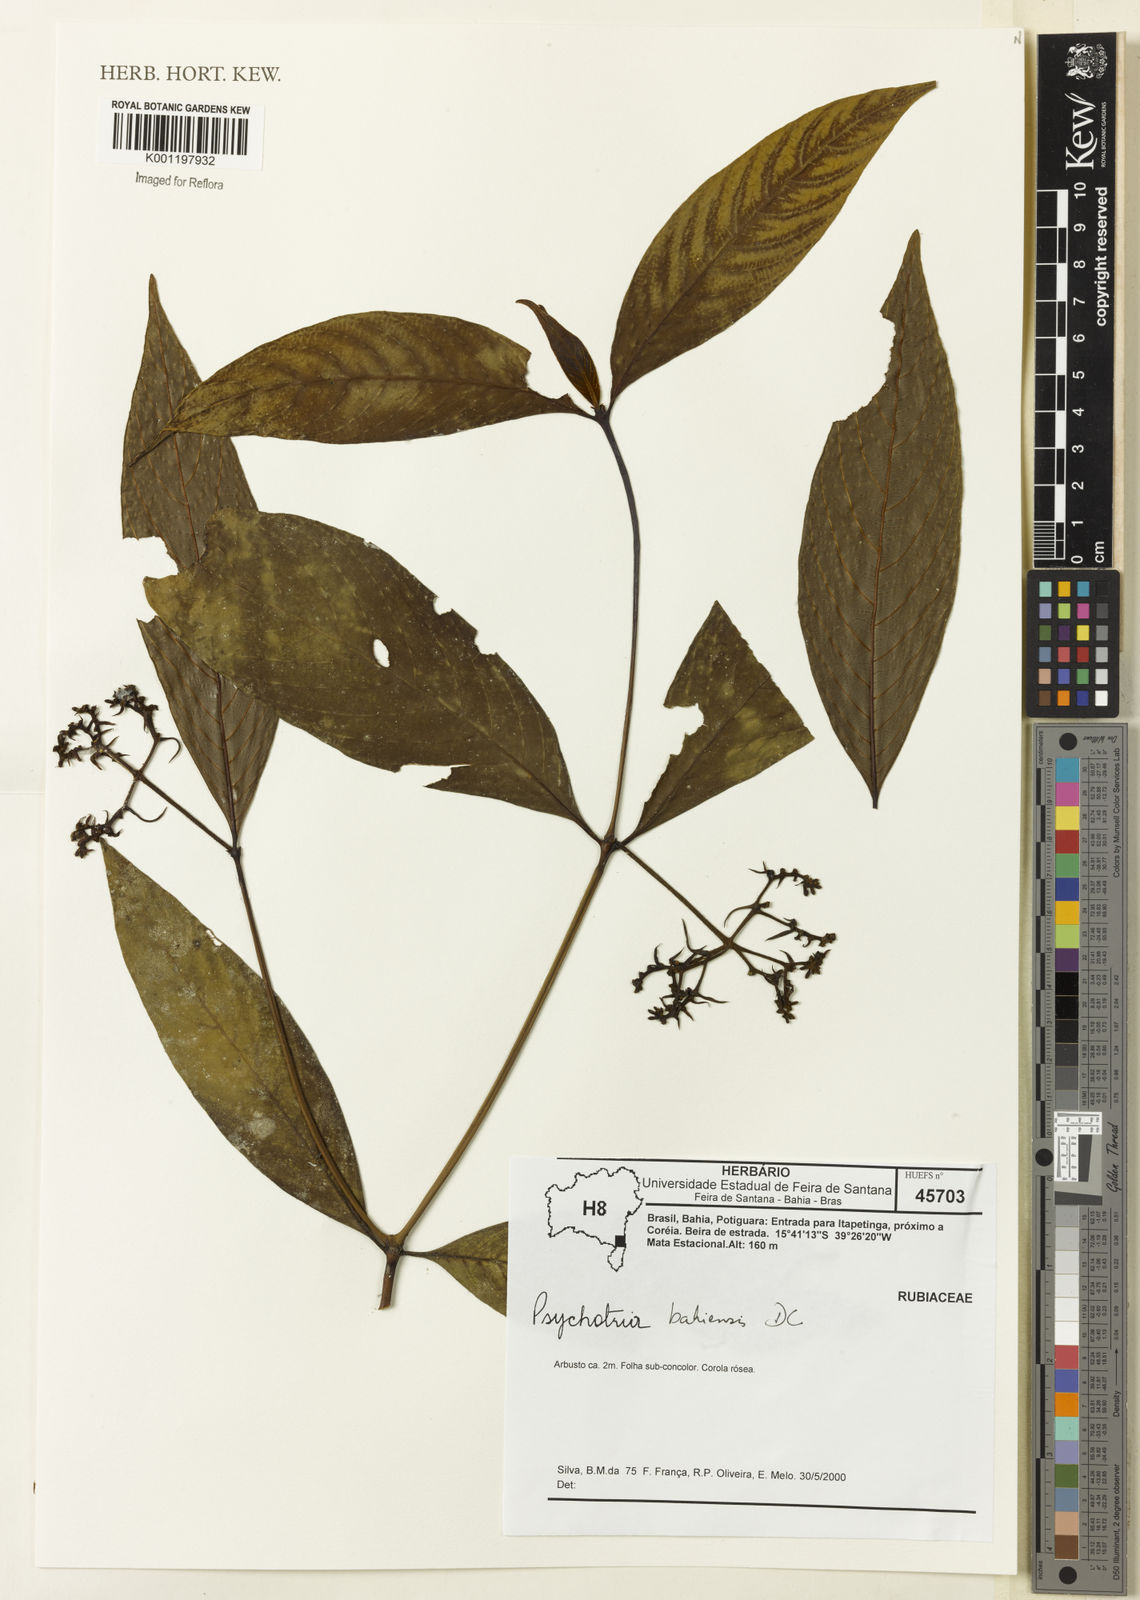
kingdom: Plantae
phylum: Tracheophyta
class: Magnoliopsida
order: Gentianales
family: Rubiaceae
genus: Psychotria
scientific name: Psychotria bahiensis
